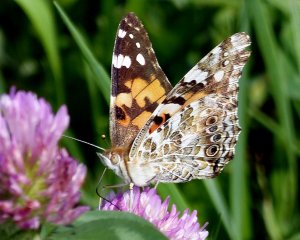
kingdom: Animalia
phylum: Arthropoda
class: Insecta
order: Lepidoptera
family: Nymphalidae
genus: Vanessa
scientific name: Vanessa cardui
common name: Painted Lady
